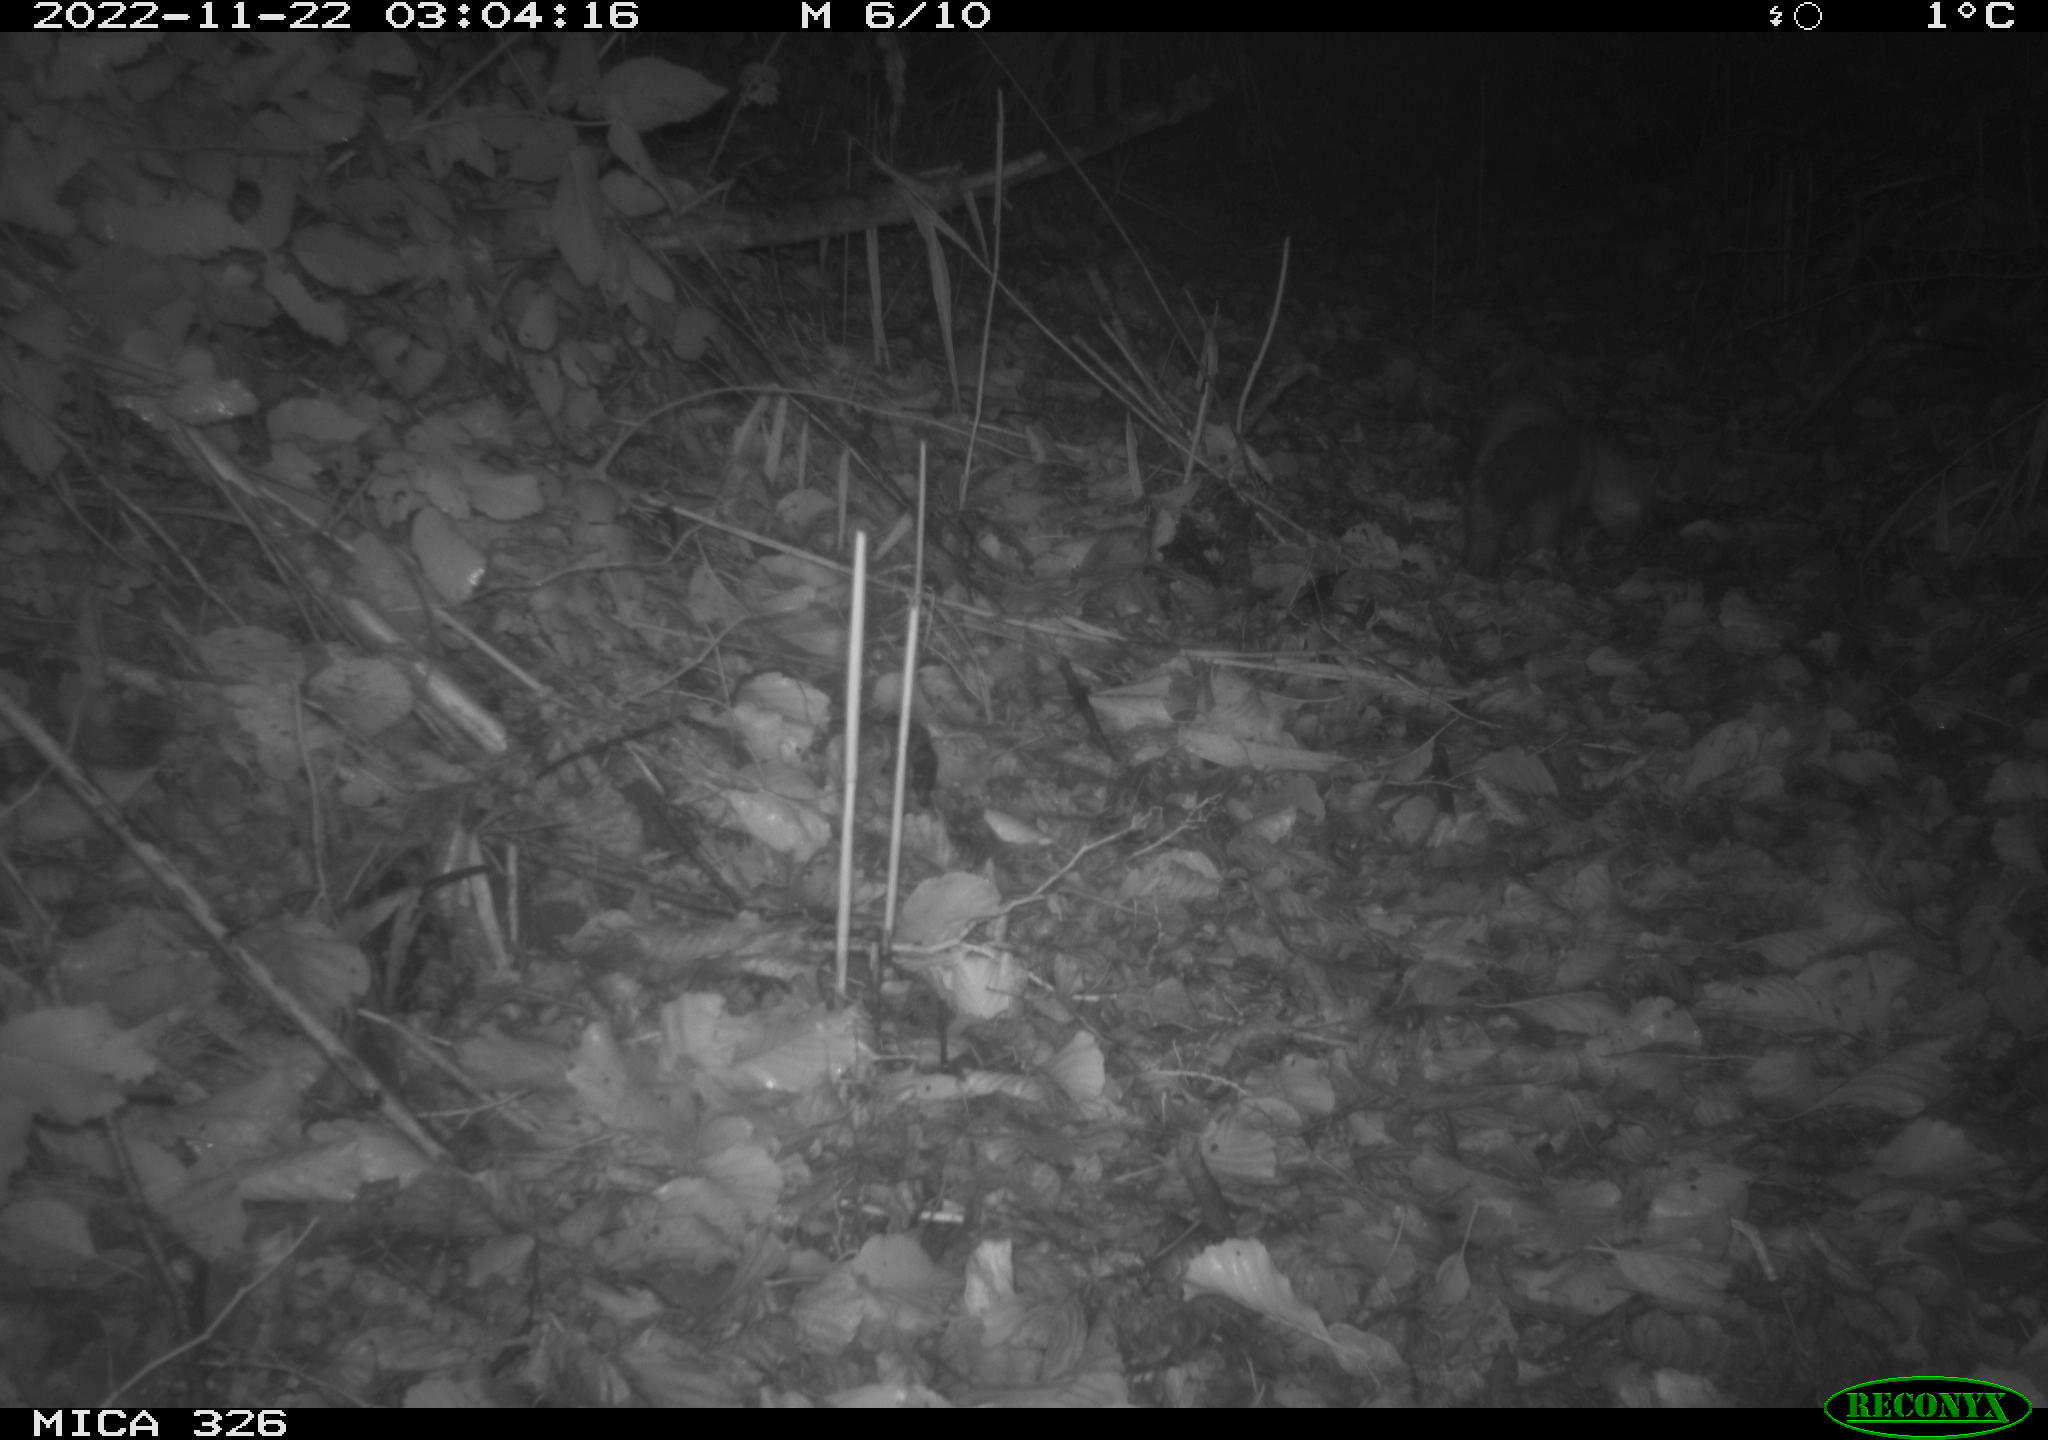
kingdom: Animalia
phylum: Chordata
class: Mammalia
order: Carnivora
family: Mustelidae
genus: Martes
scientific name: Martes
